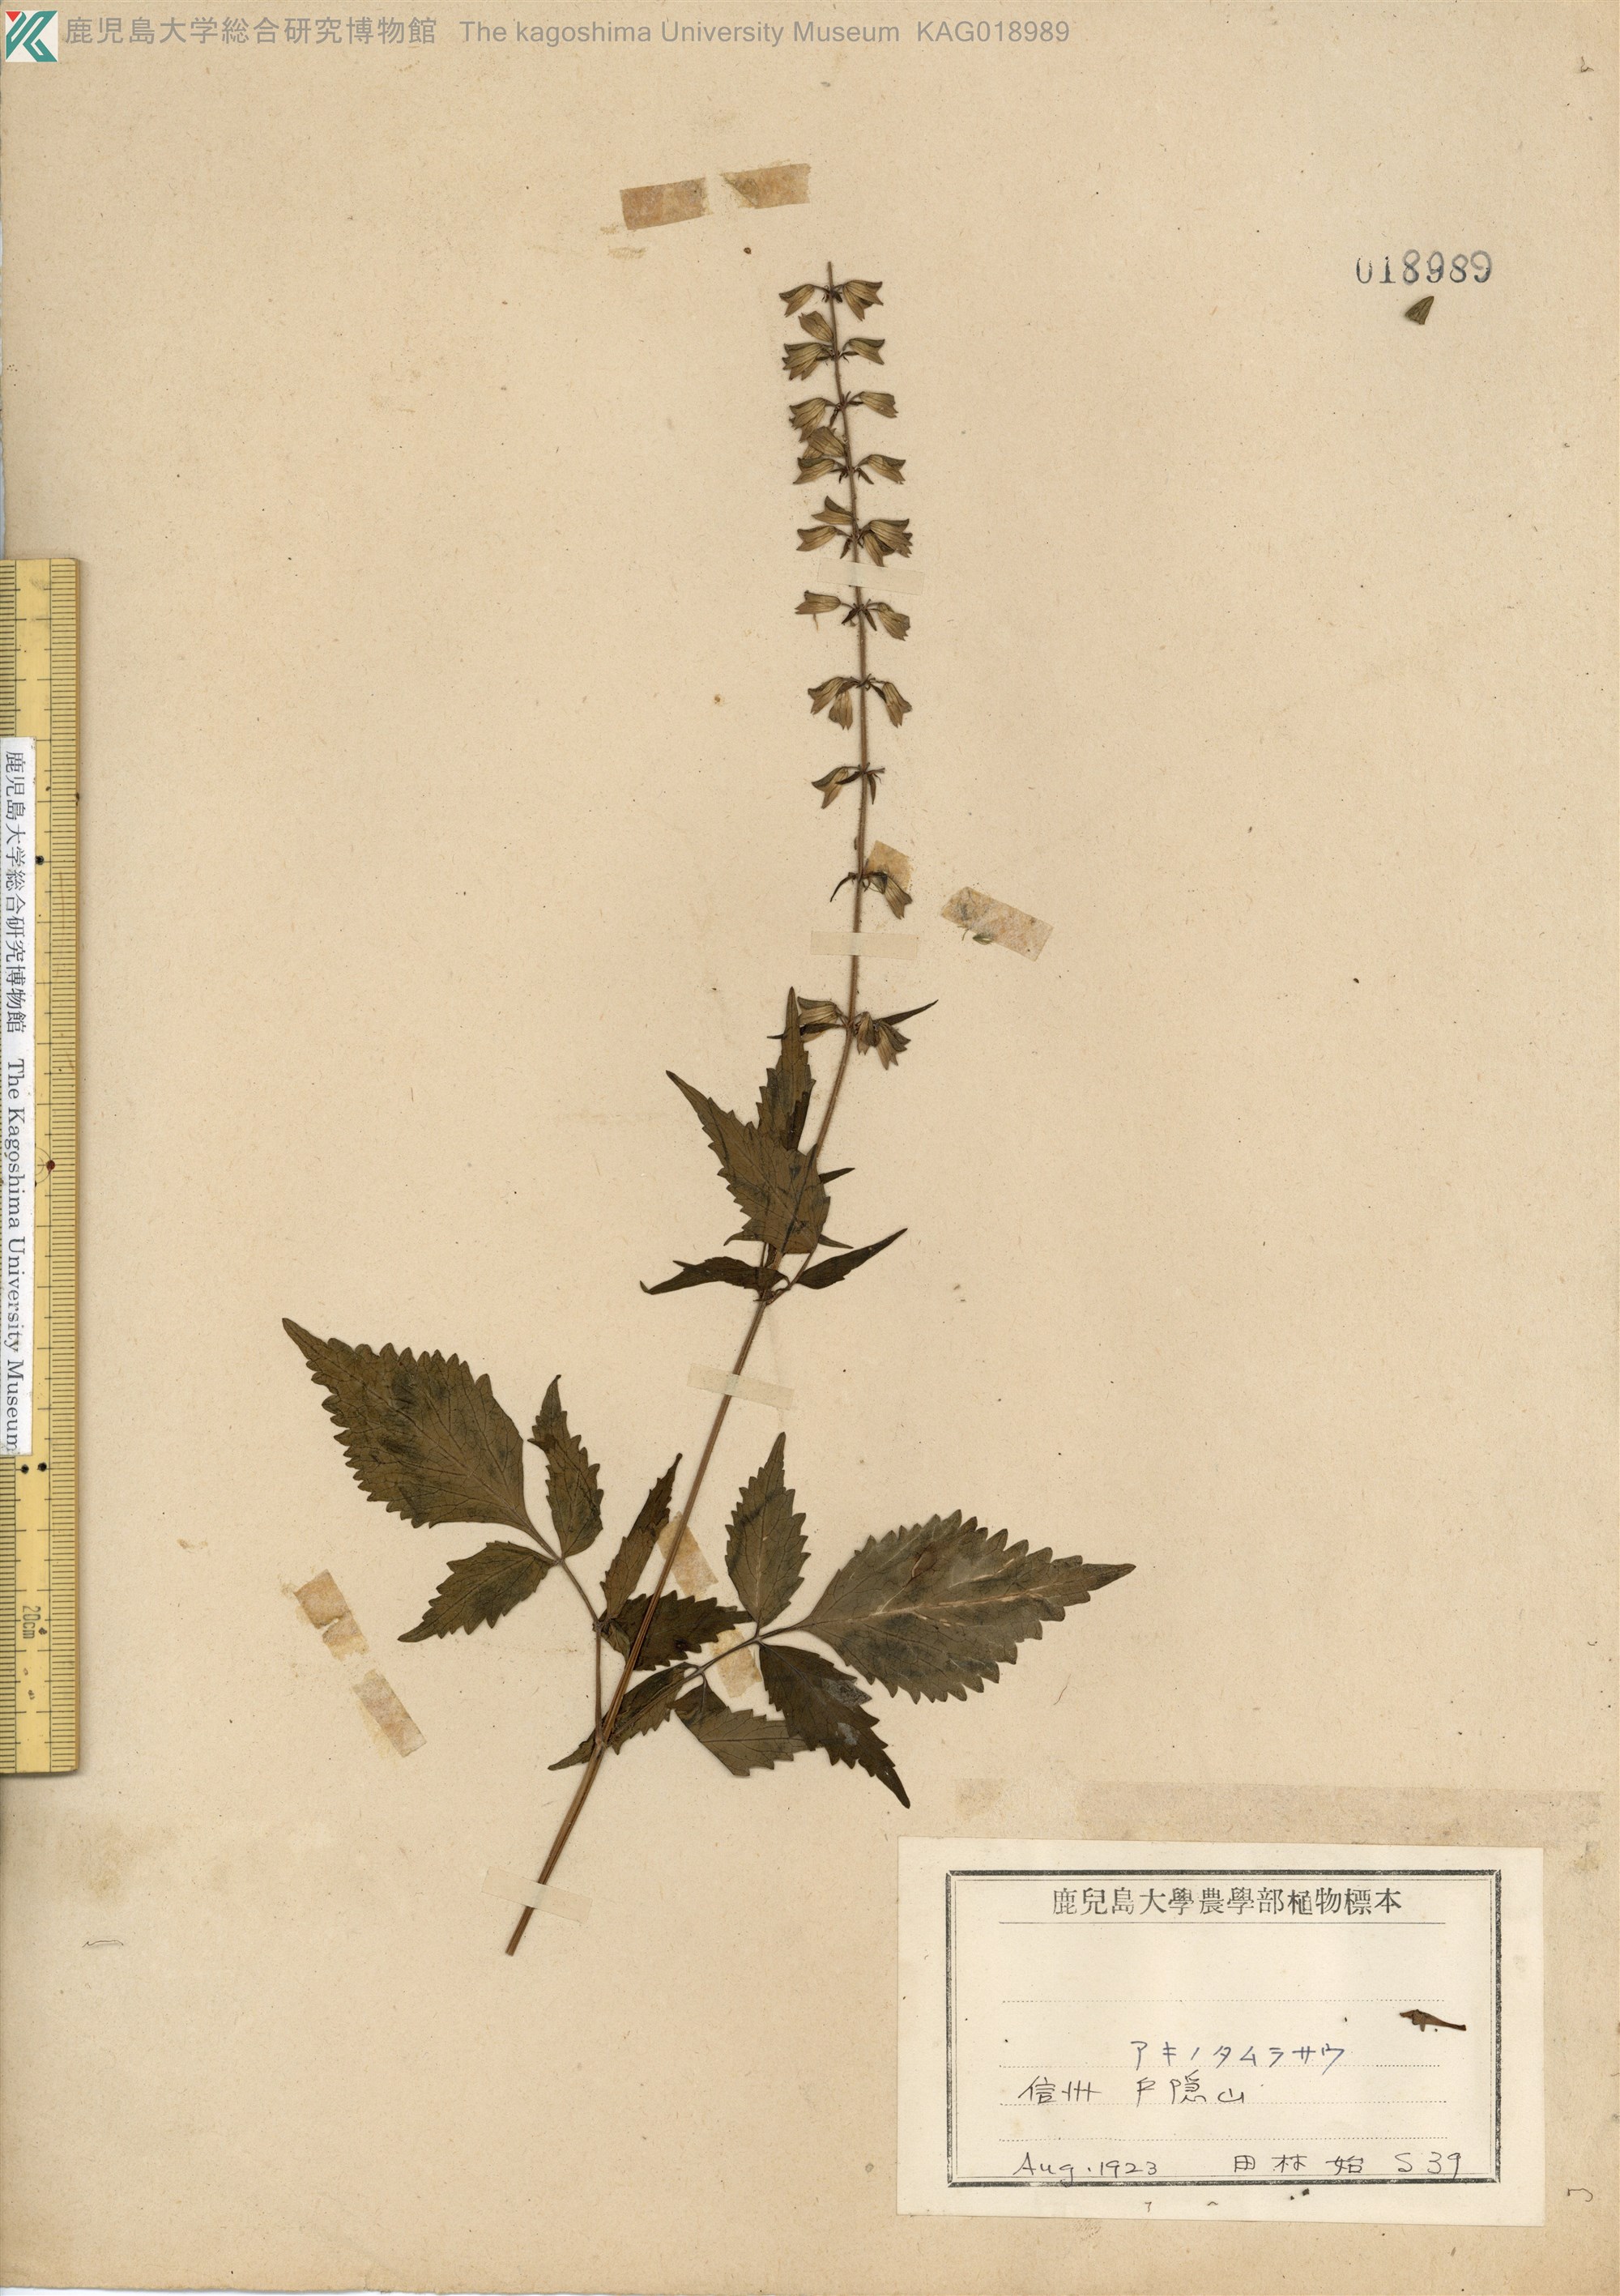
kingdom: Plantae
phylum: Tracheophyta
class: Magnoliopsida
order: Lamiales
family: Lamiaceae
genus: Salvia
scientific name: Salvia japonica
